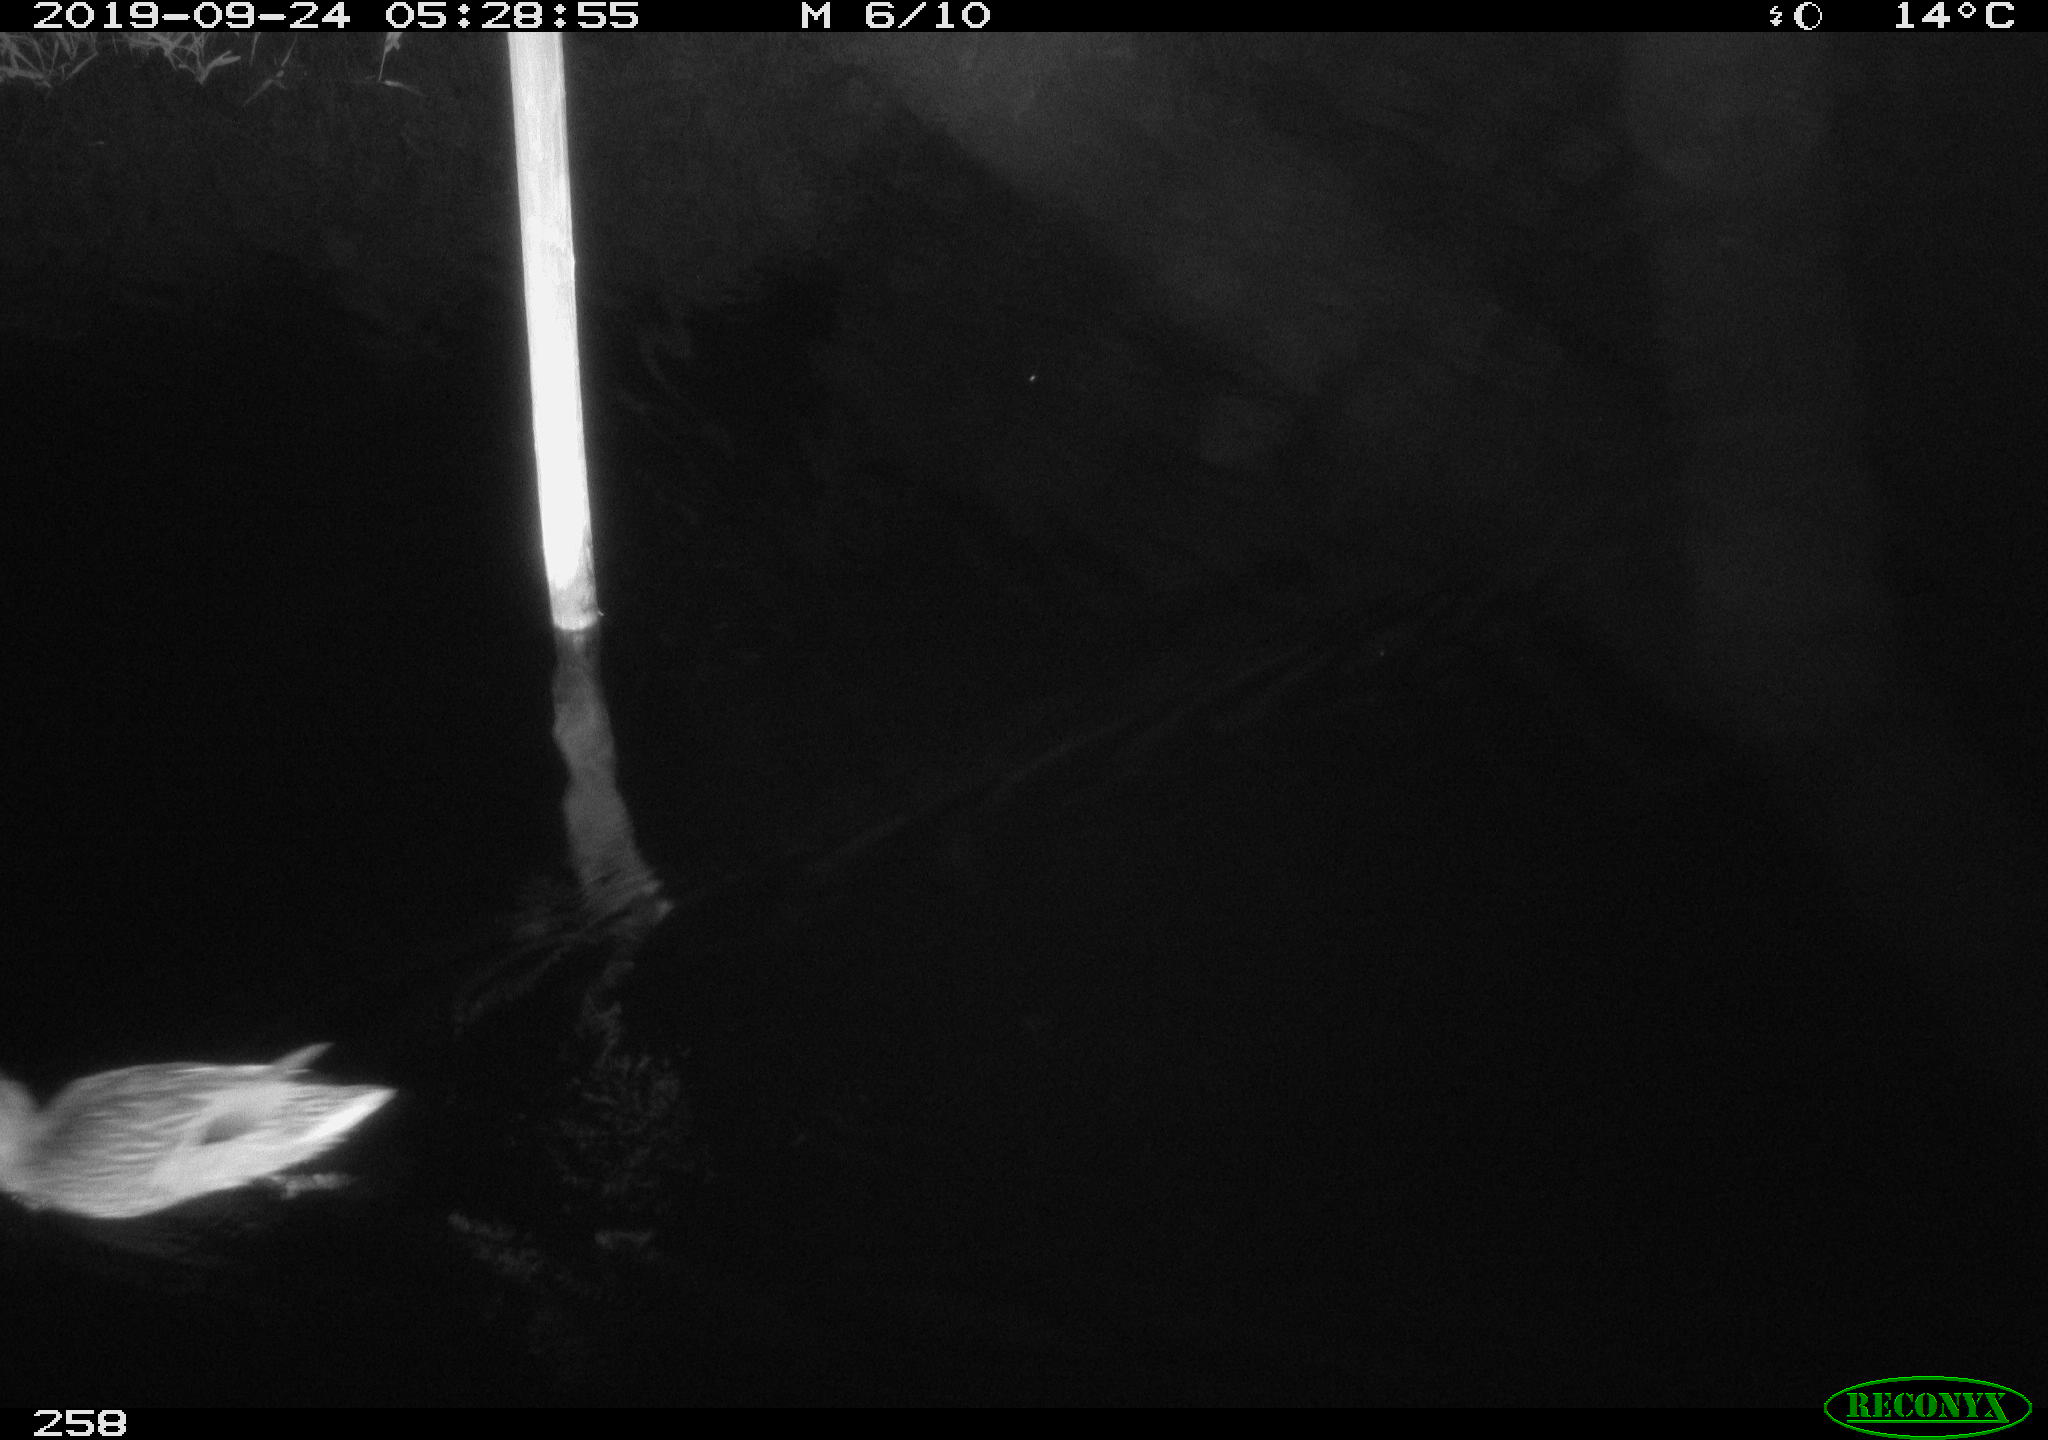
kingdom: Animalia
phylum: Chordata
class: Aves
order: Anseriformes
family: Anatidae
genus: Anas
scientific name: Anas platyrhynchos
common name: Mallard
